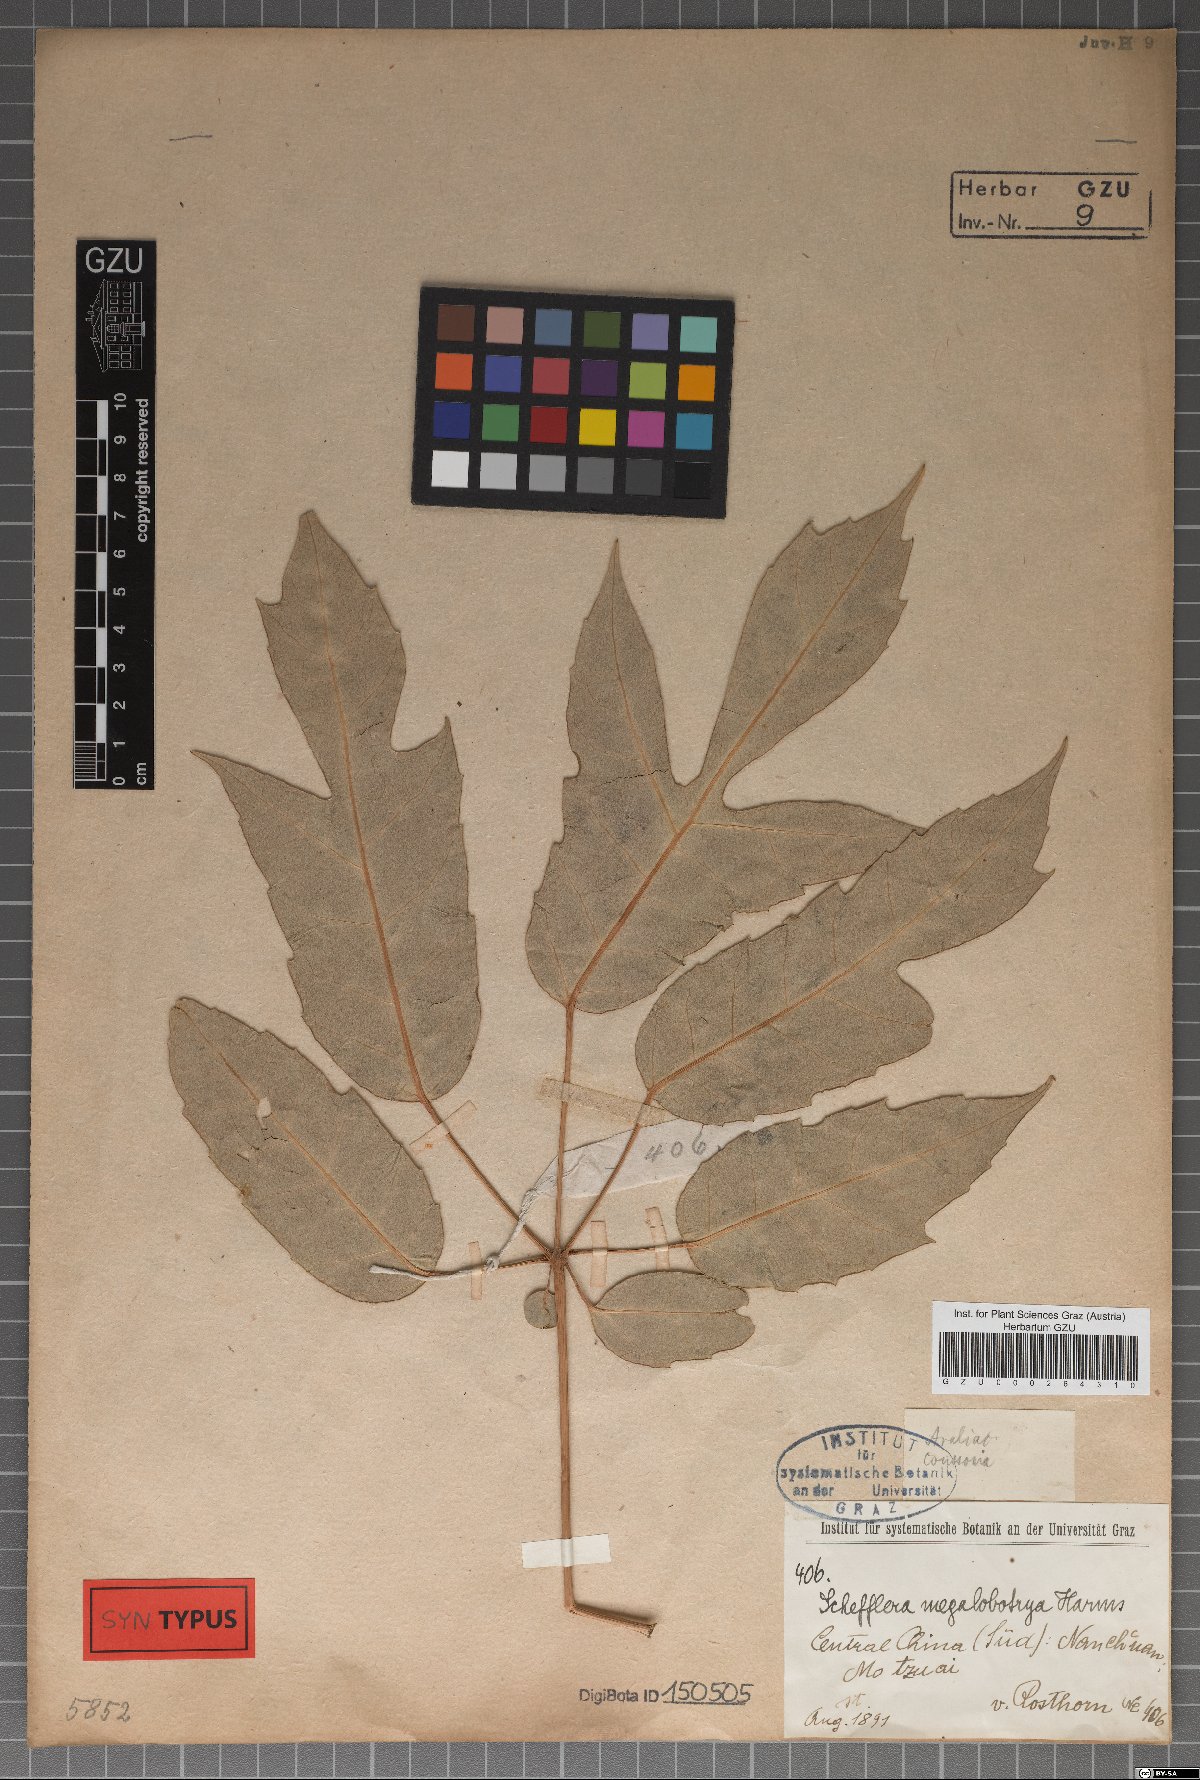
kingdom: Plantae
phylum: Tracheophyta
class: Magnoliopsida
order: Apiales
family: Araliaceae
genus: Schefflera
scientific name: Schefflera megalobotrya
